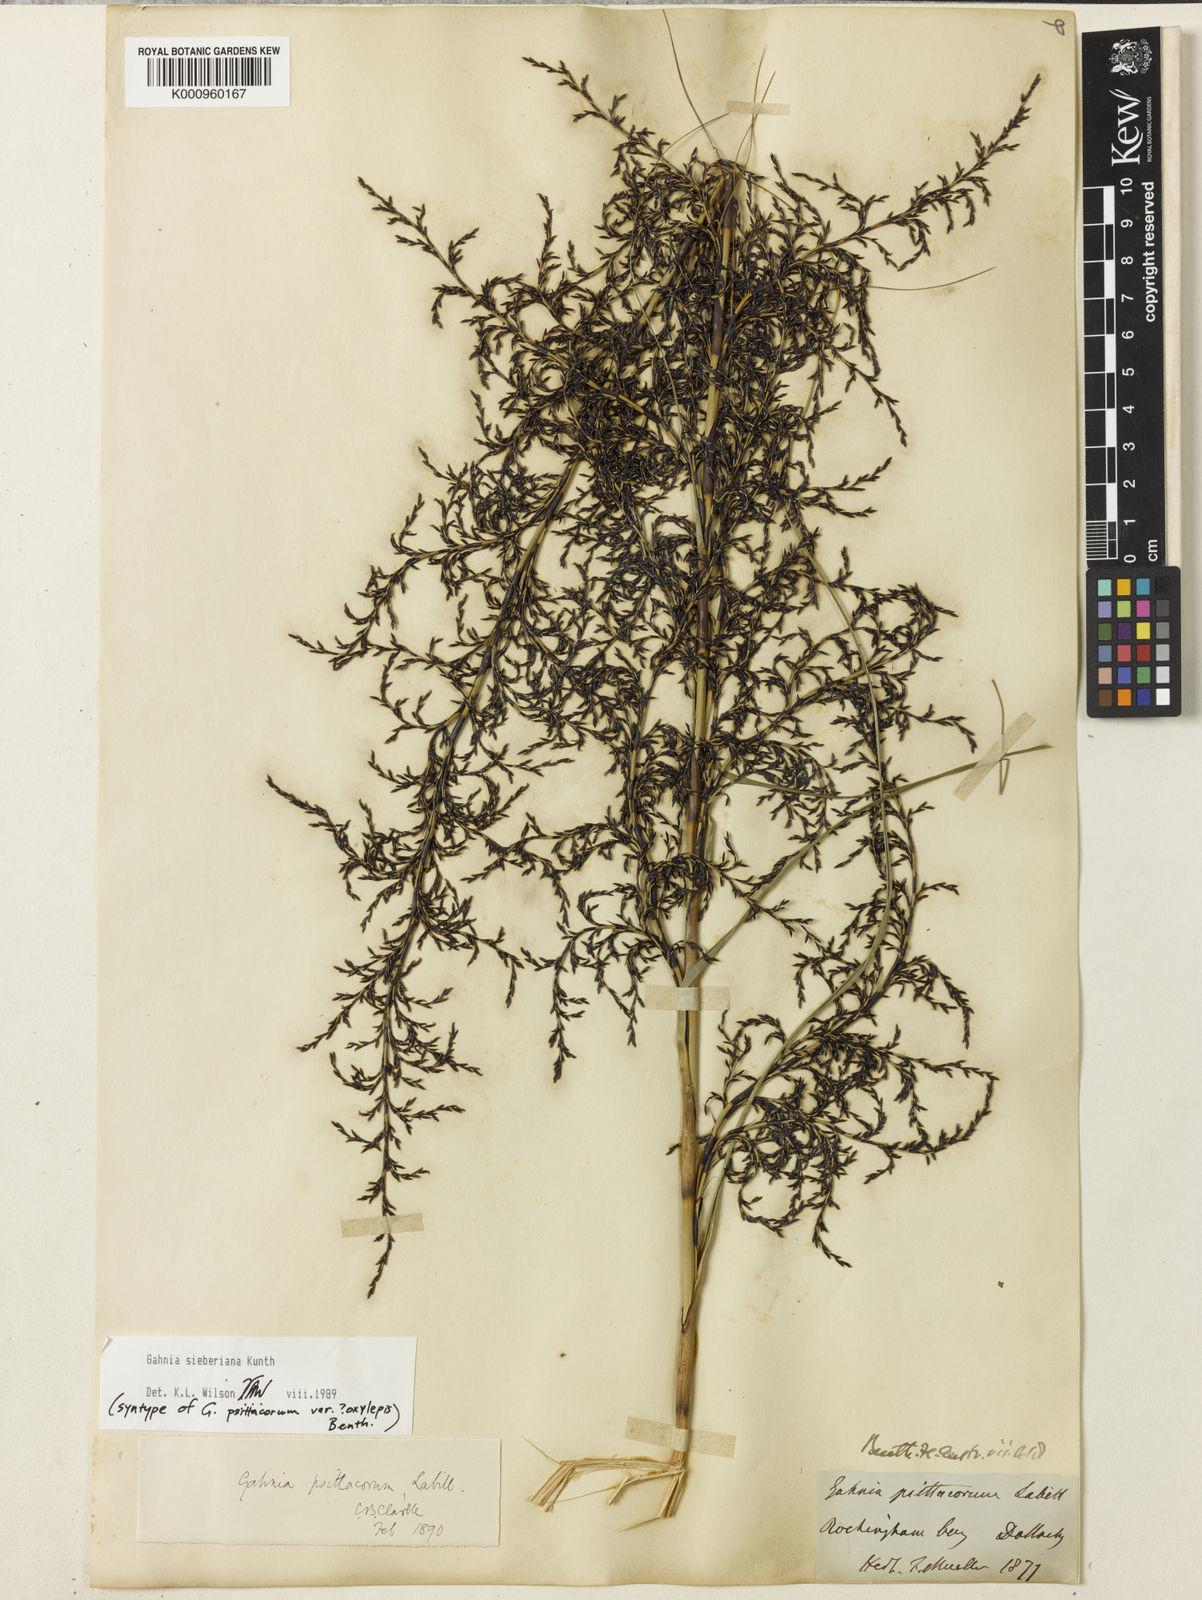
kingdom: Plantae
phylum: Tracheophyta
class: Liliopsida
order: Poales
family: Cyperaceae
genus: Gahnia
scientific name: Gahnia sieberiana
